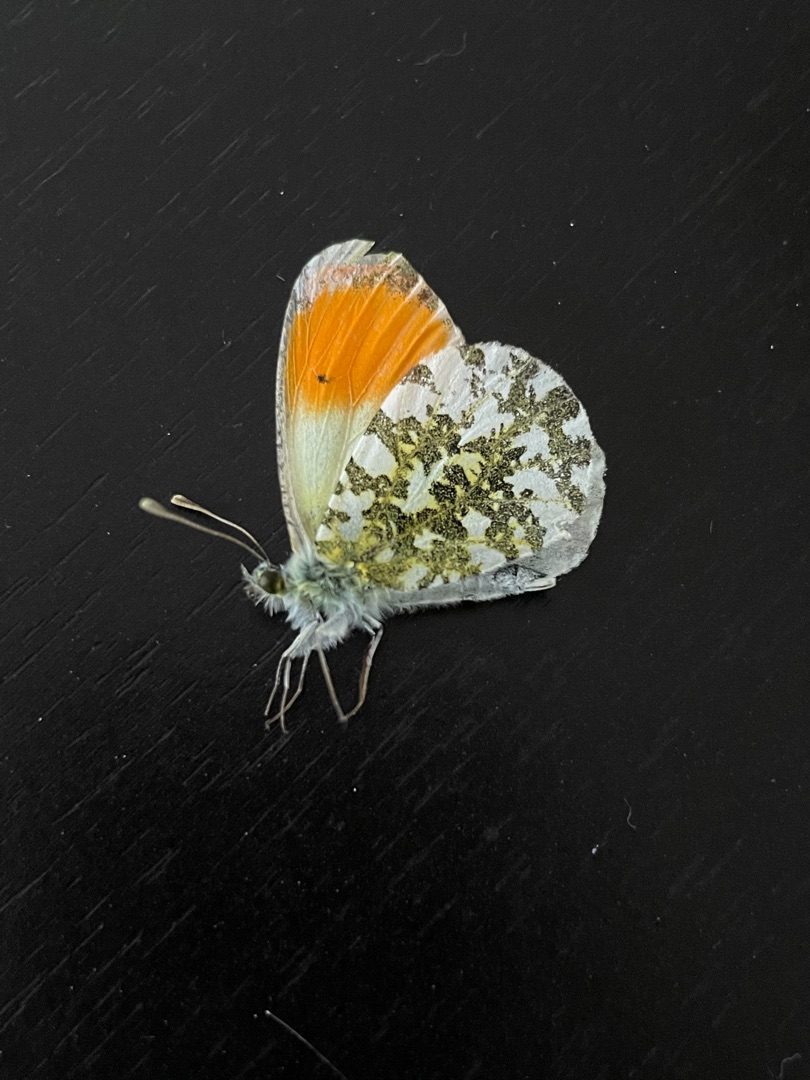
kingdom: Animalia
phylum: Arthropoda
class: Insecta
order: Lepidoptera
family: Pieridae
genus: Anthocharis
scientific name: Anthocharis cardamines
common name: Aurora
